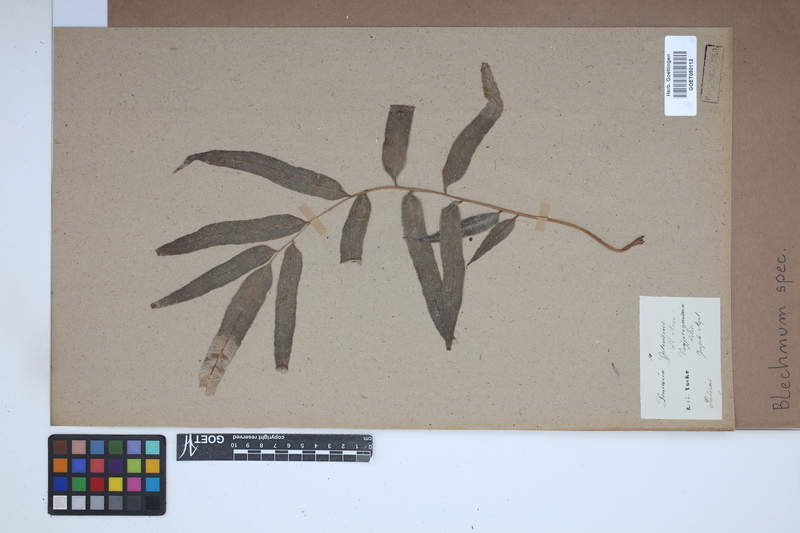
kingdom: Plantae
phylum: Tracheophyta
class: Polypodiopsida
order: Polypodiales
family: Blechnaceae
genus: Blechnum
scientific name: Blechnum
